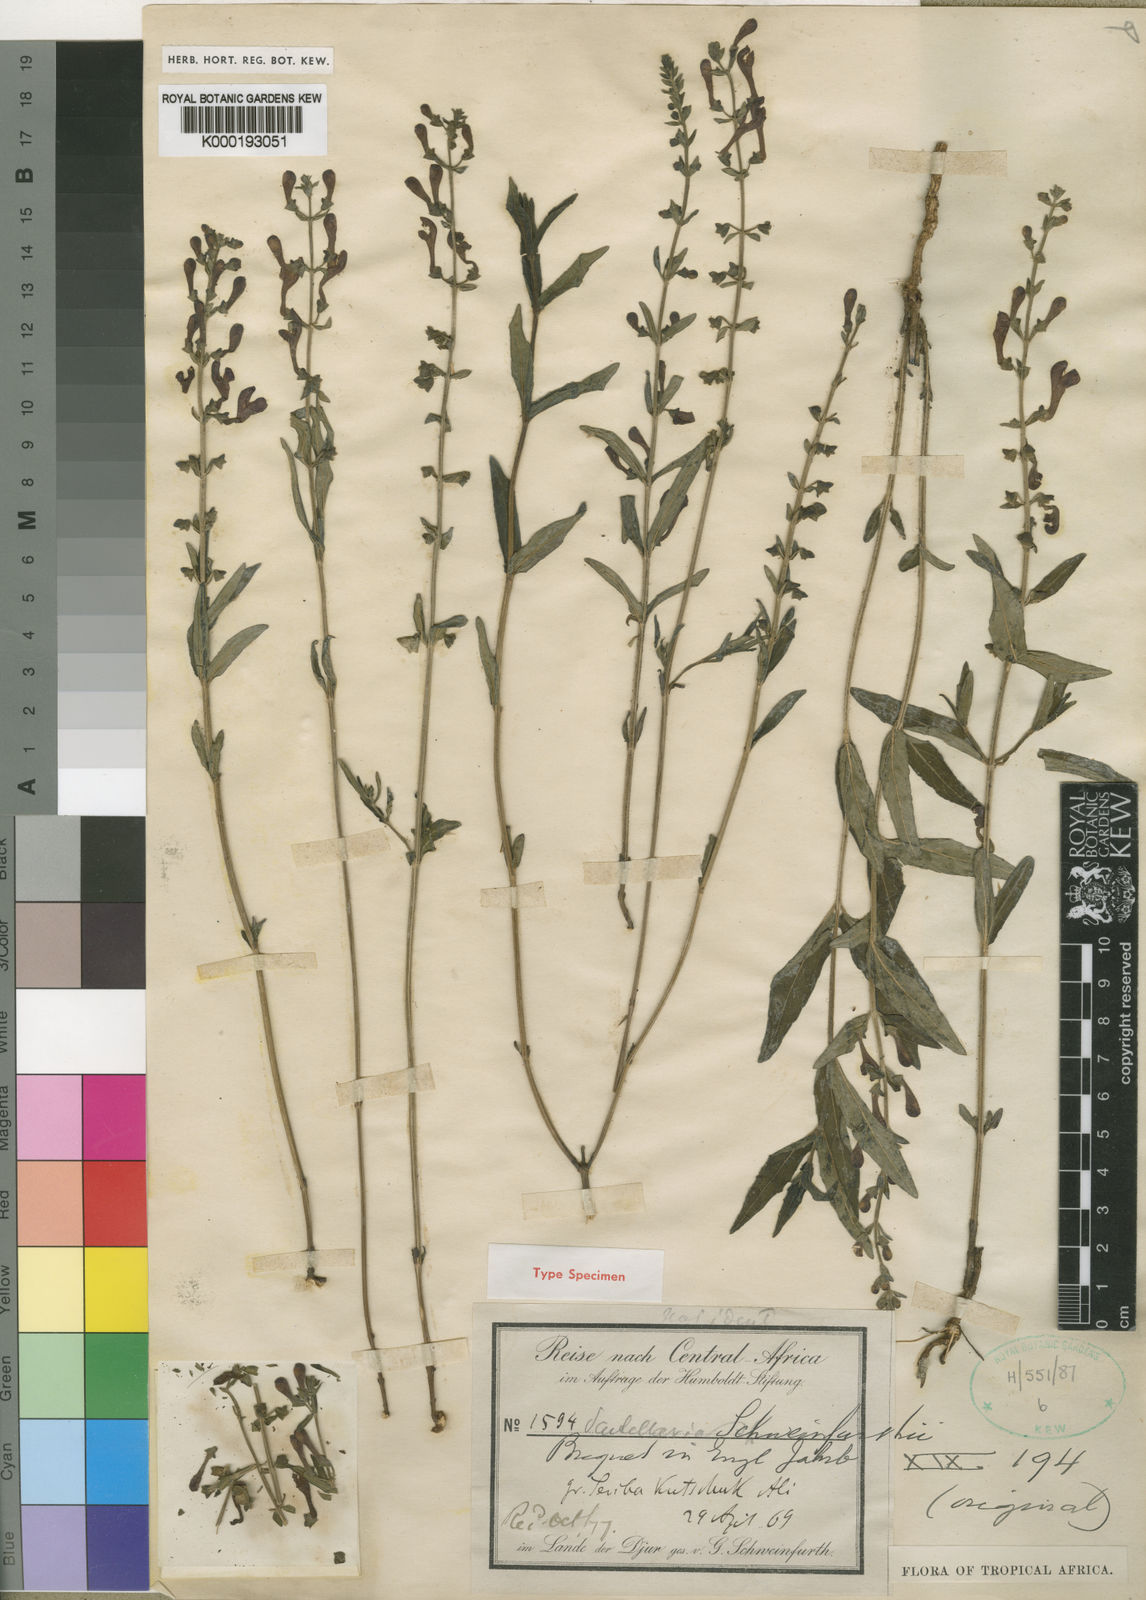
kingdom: Plantae
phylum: Tracheophyta
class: Magnoliopsida
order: Lamiales
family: Lamiaceae
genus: Scutellaria
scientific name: Scutellaria schweinfurthii
